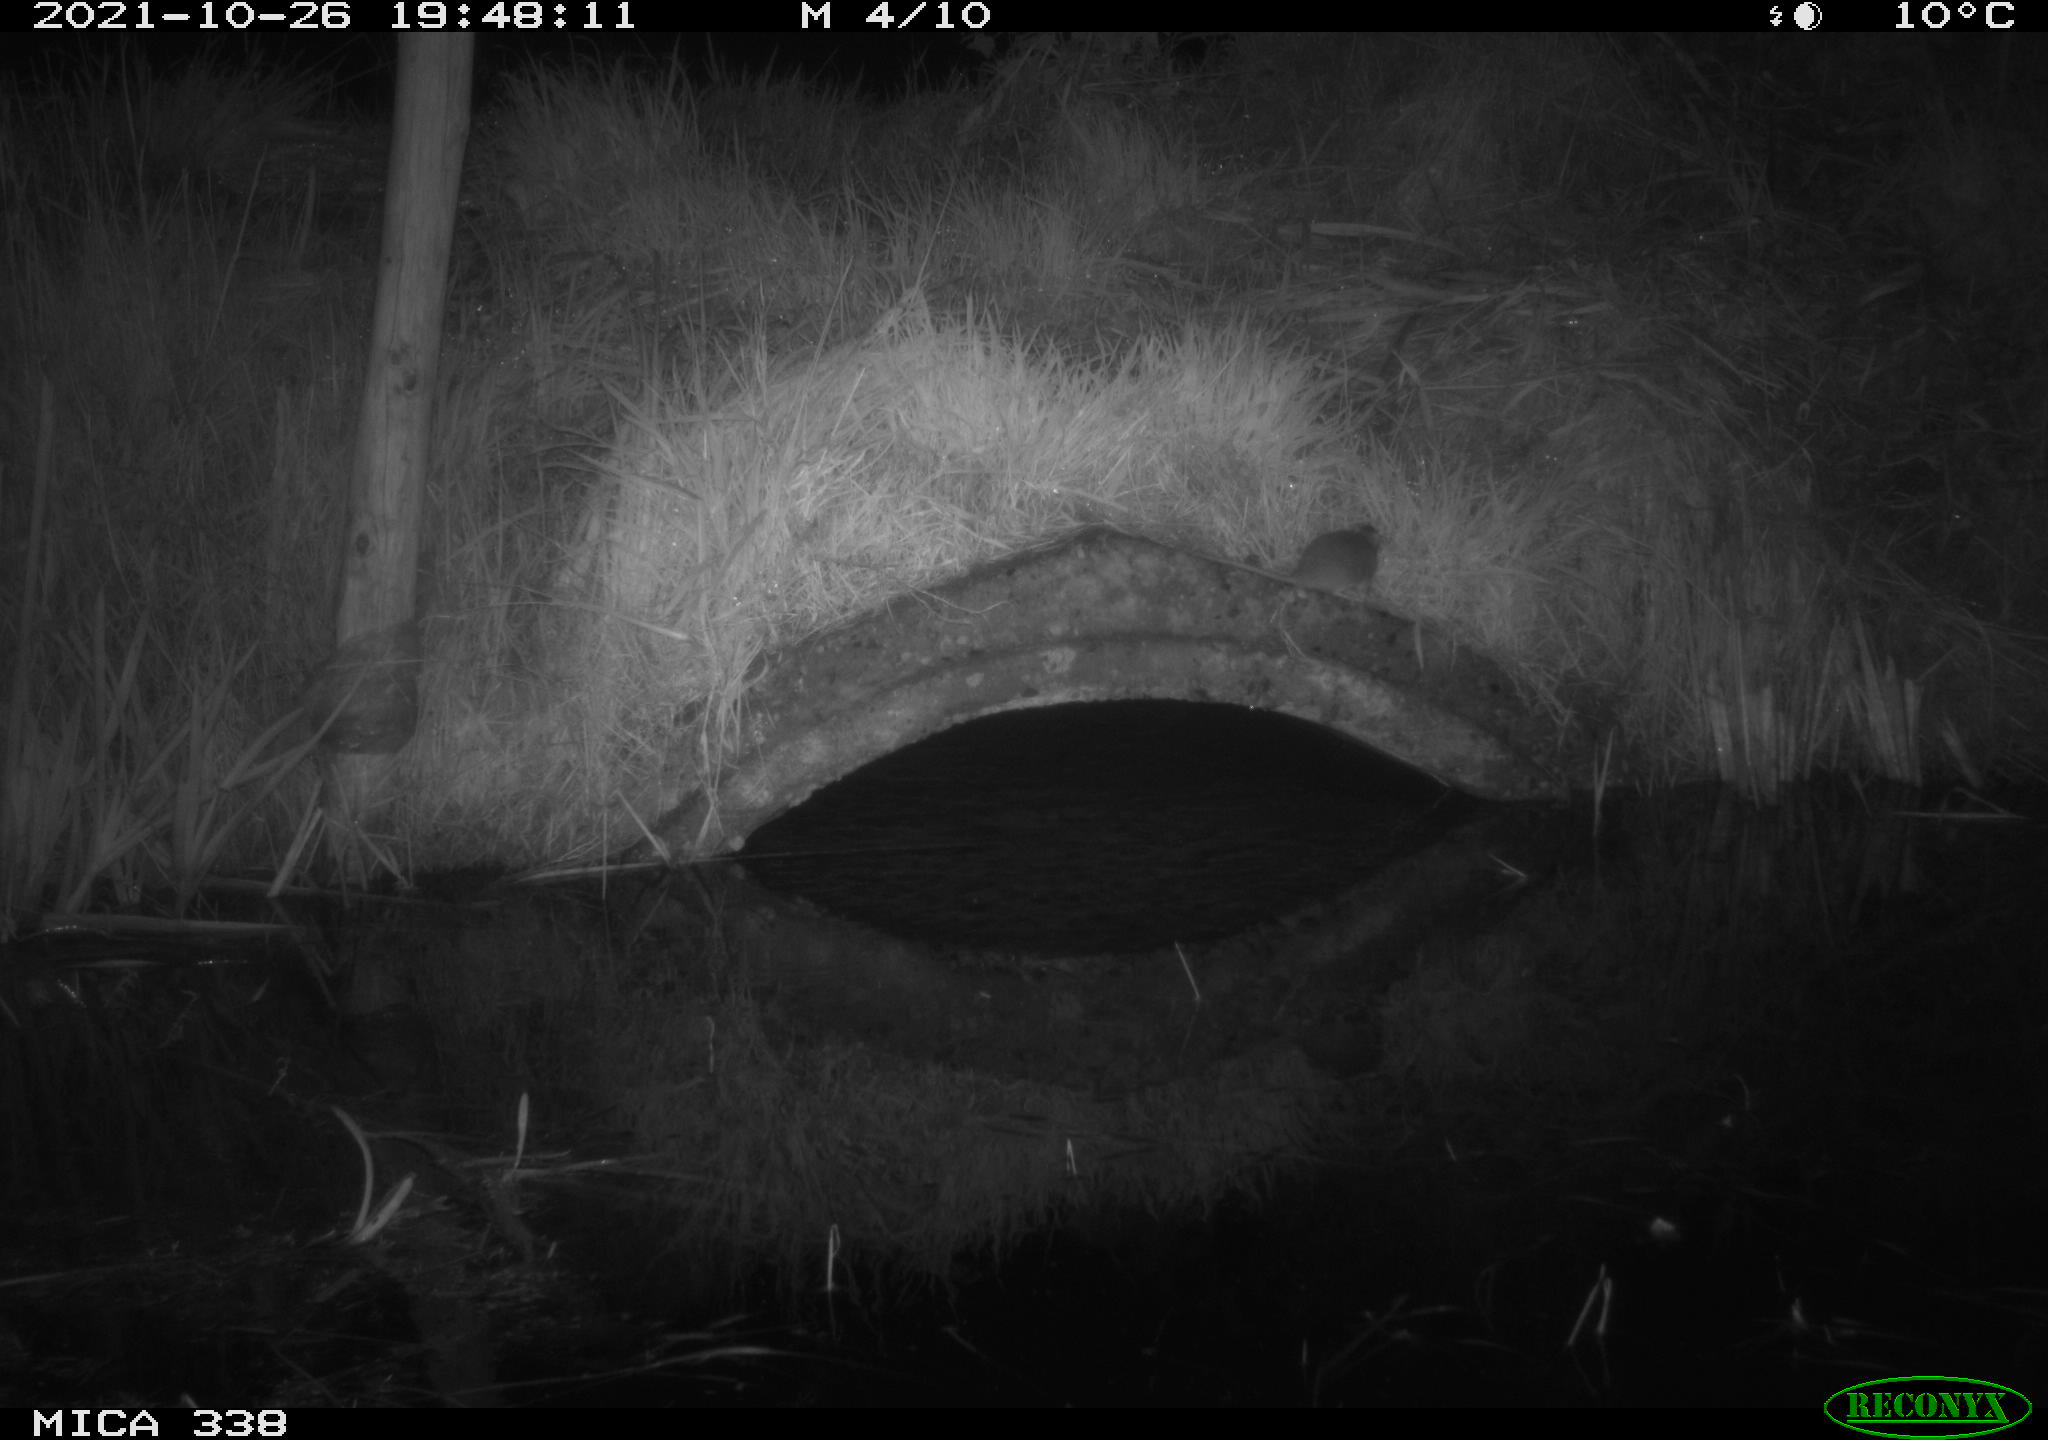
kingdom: Animalia
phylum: Chordata
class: Mammalia
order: Rodentia
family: Muridae
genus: Rattus
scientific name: Rattus norvegicus
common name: Brown rat
